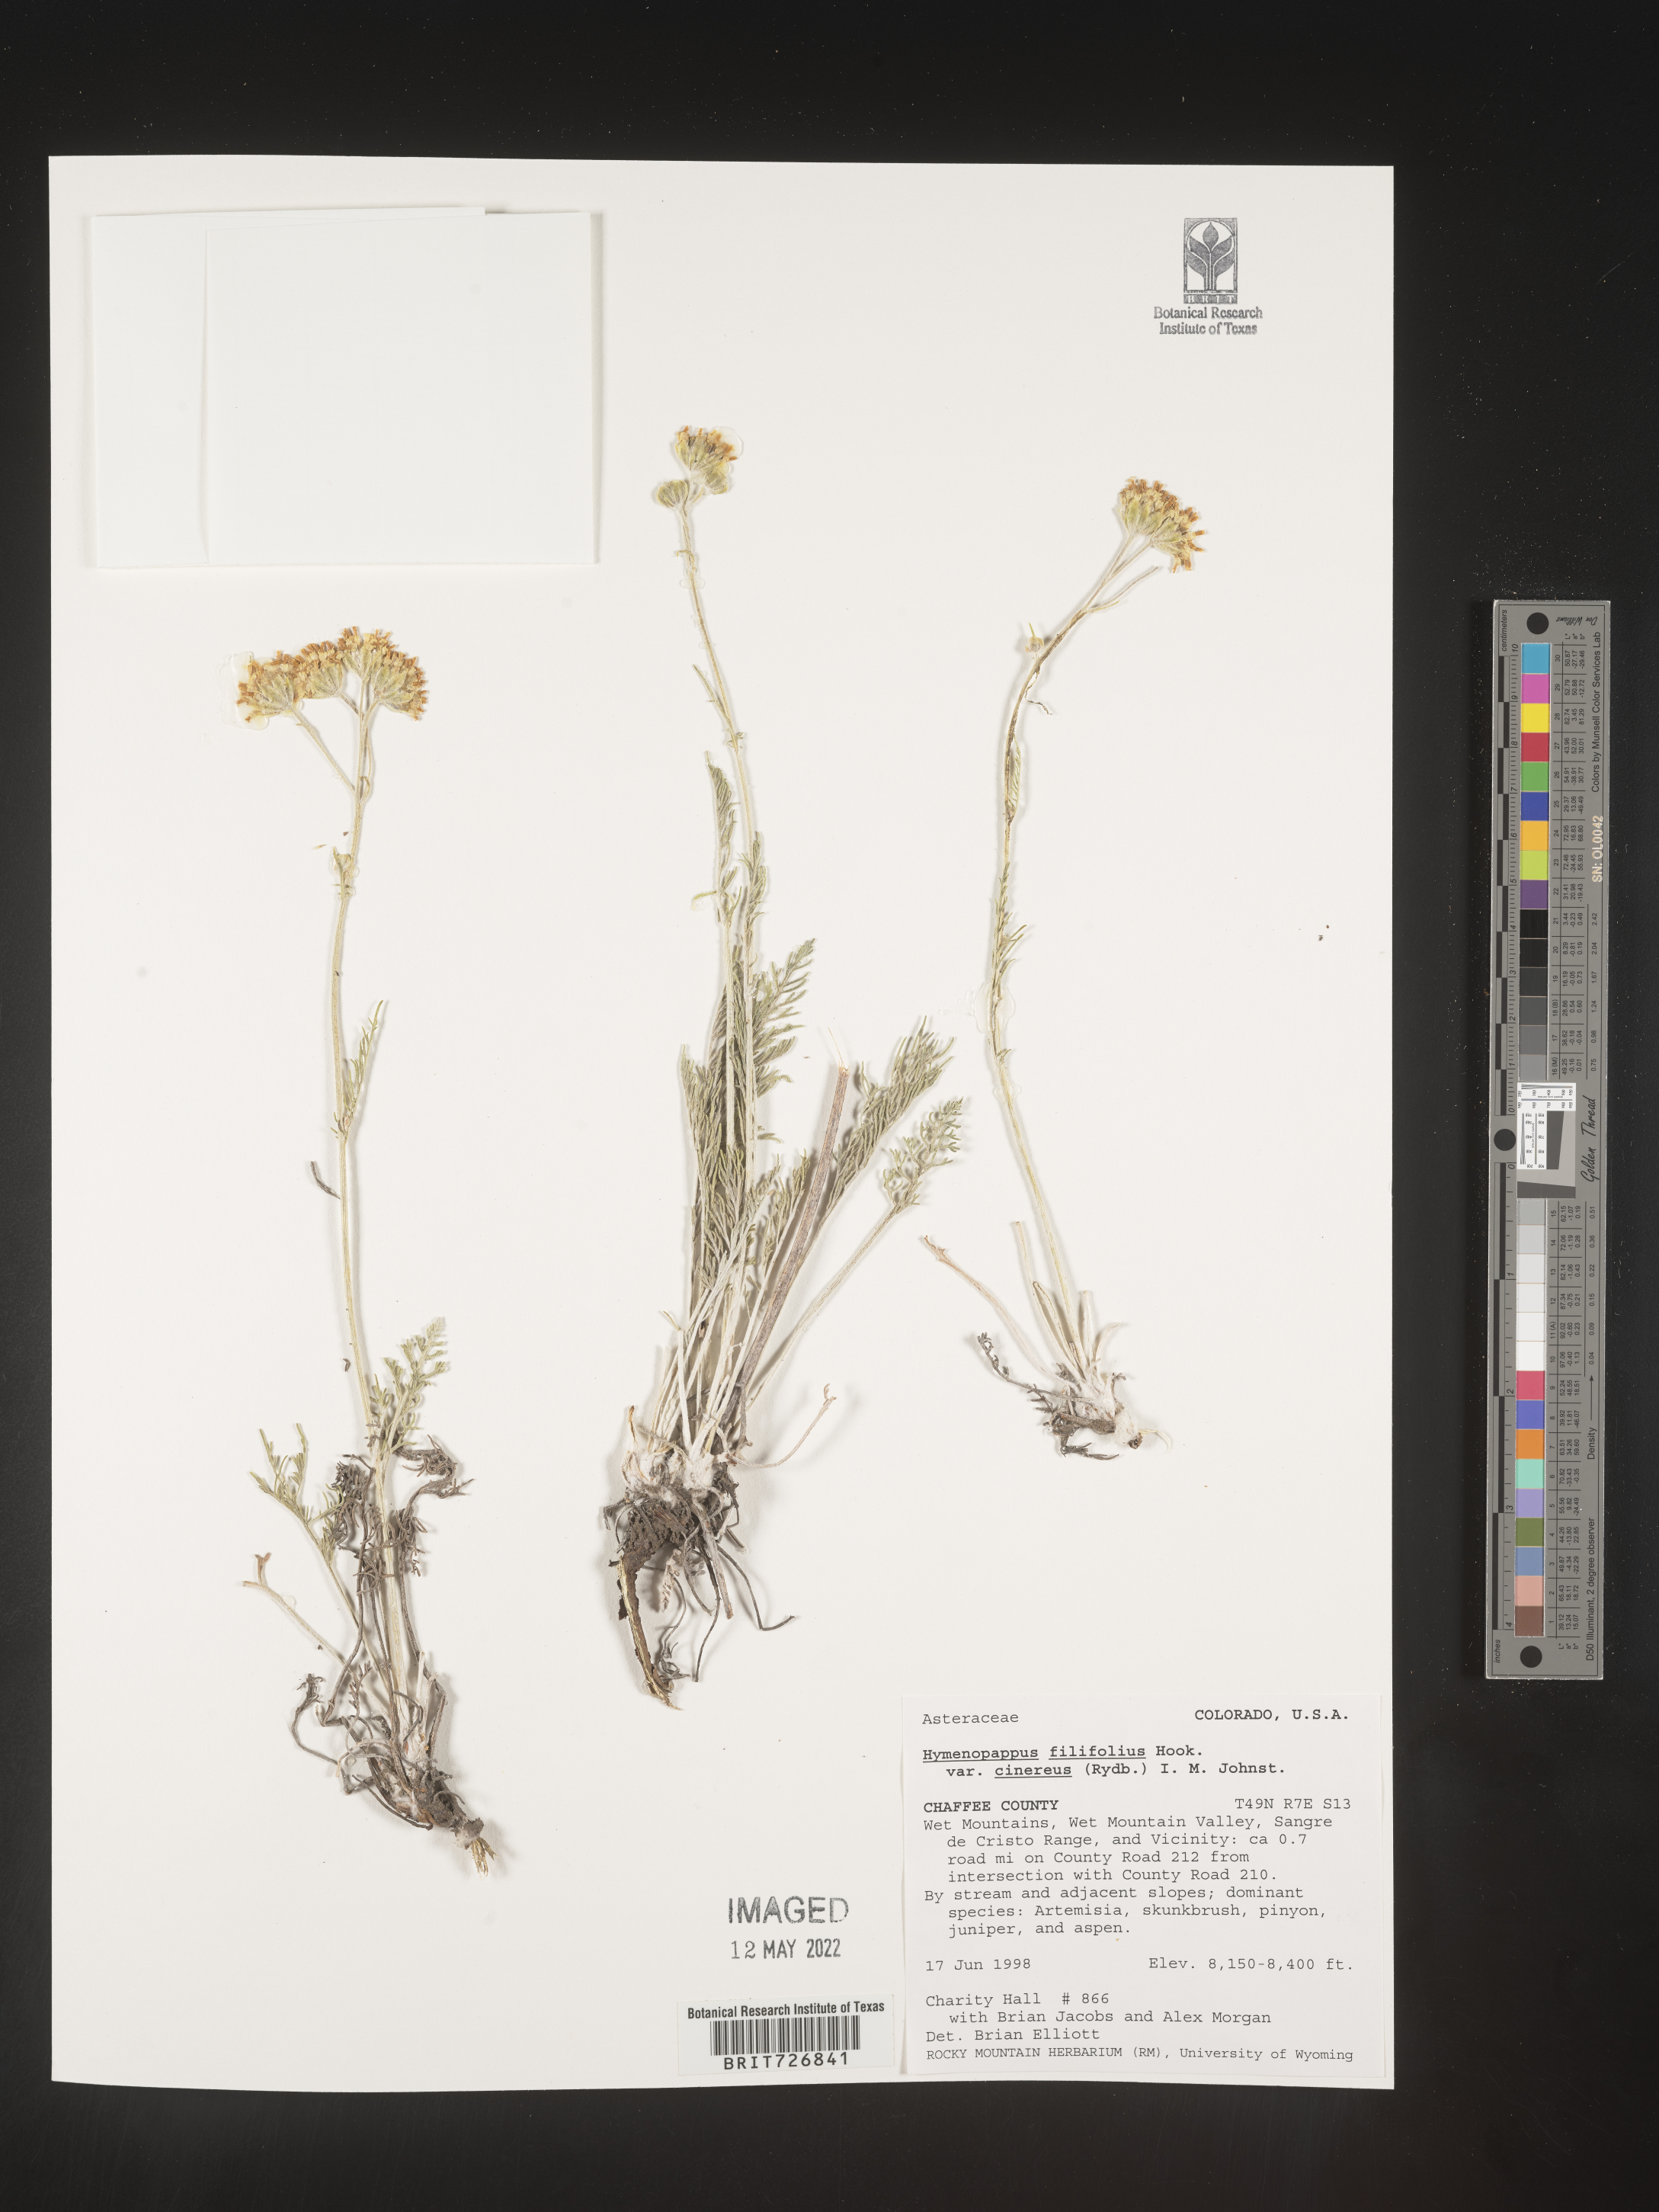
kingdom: Plantae
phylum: Tracheophyta
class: Magnoliopsida
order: Asterales
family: Asteraceae
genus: Hymenopappus
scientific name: Hymenopappus filifolius
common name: Columbia cutleaf
